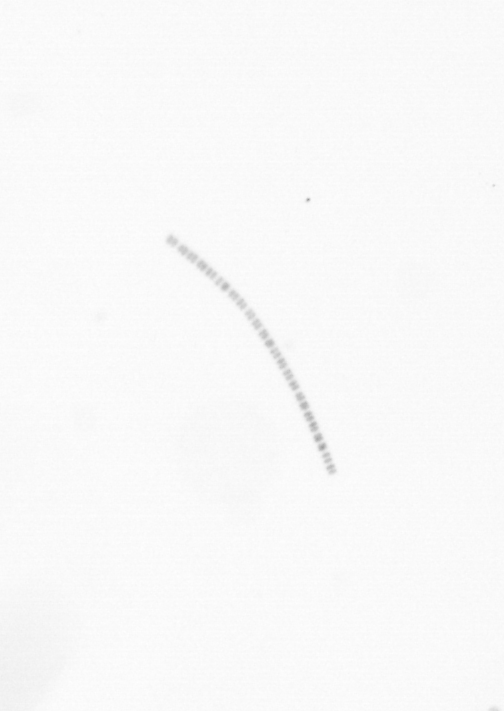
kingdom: Chromista
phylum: Ochrophyta
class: Bacillariophyceae
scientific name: Bacillariophyceae
